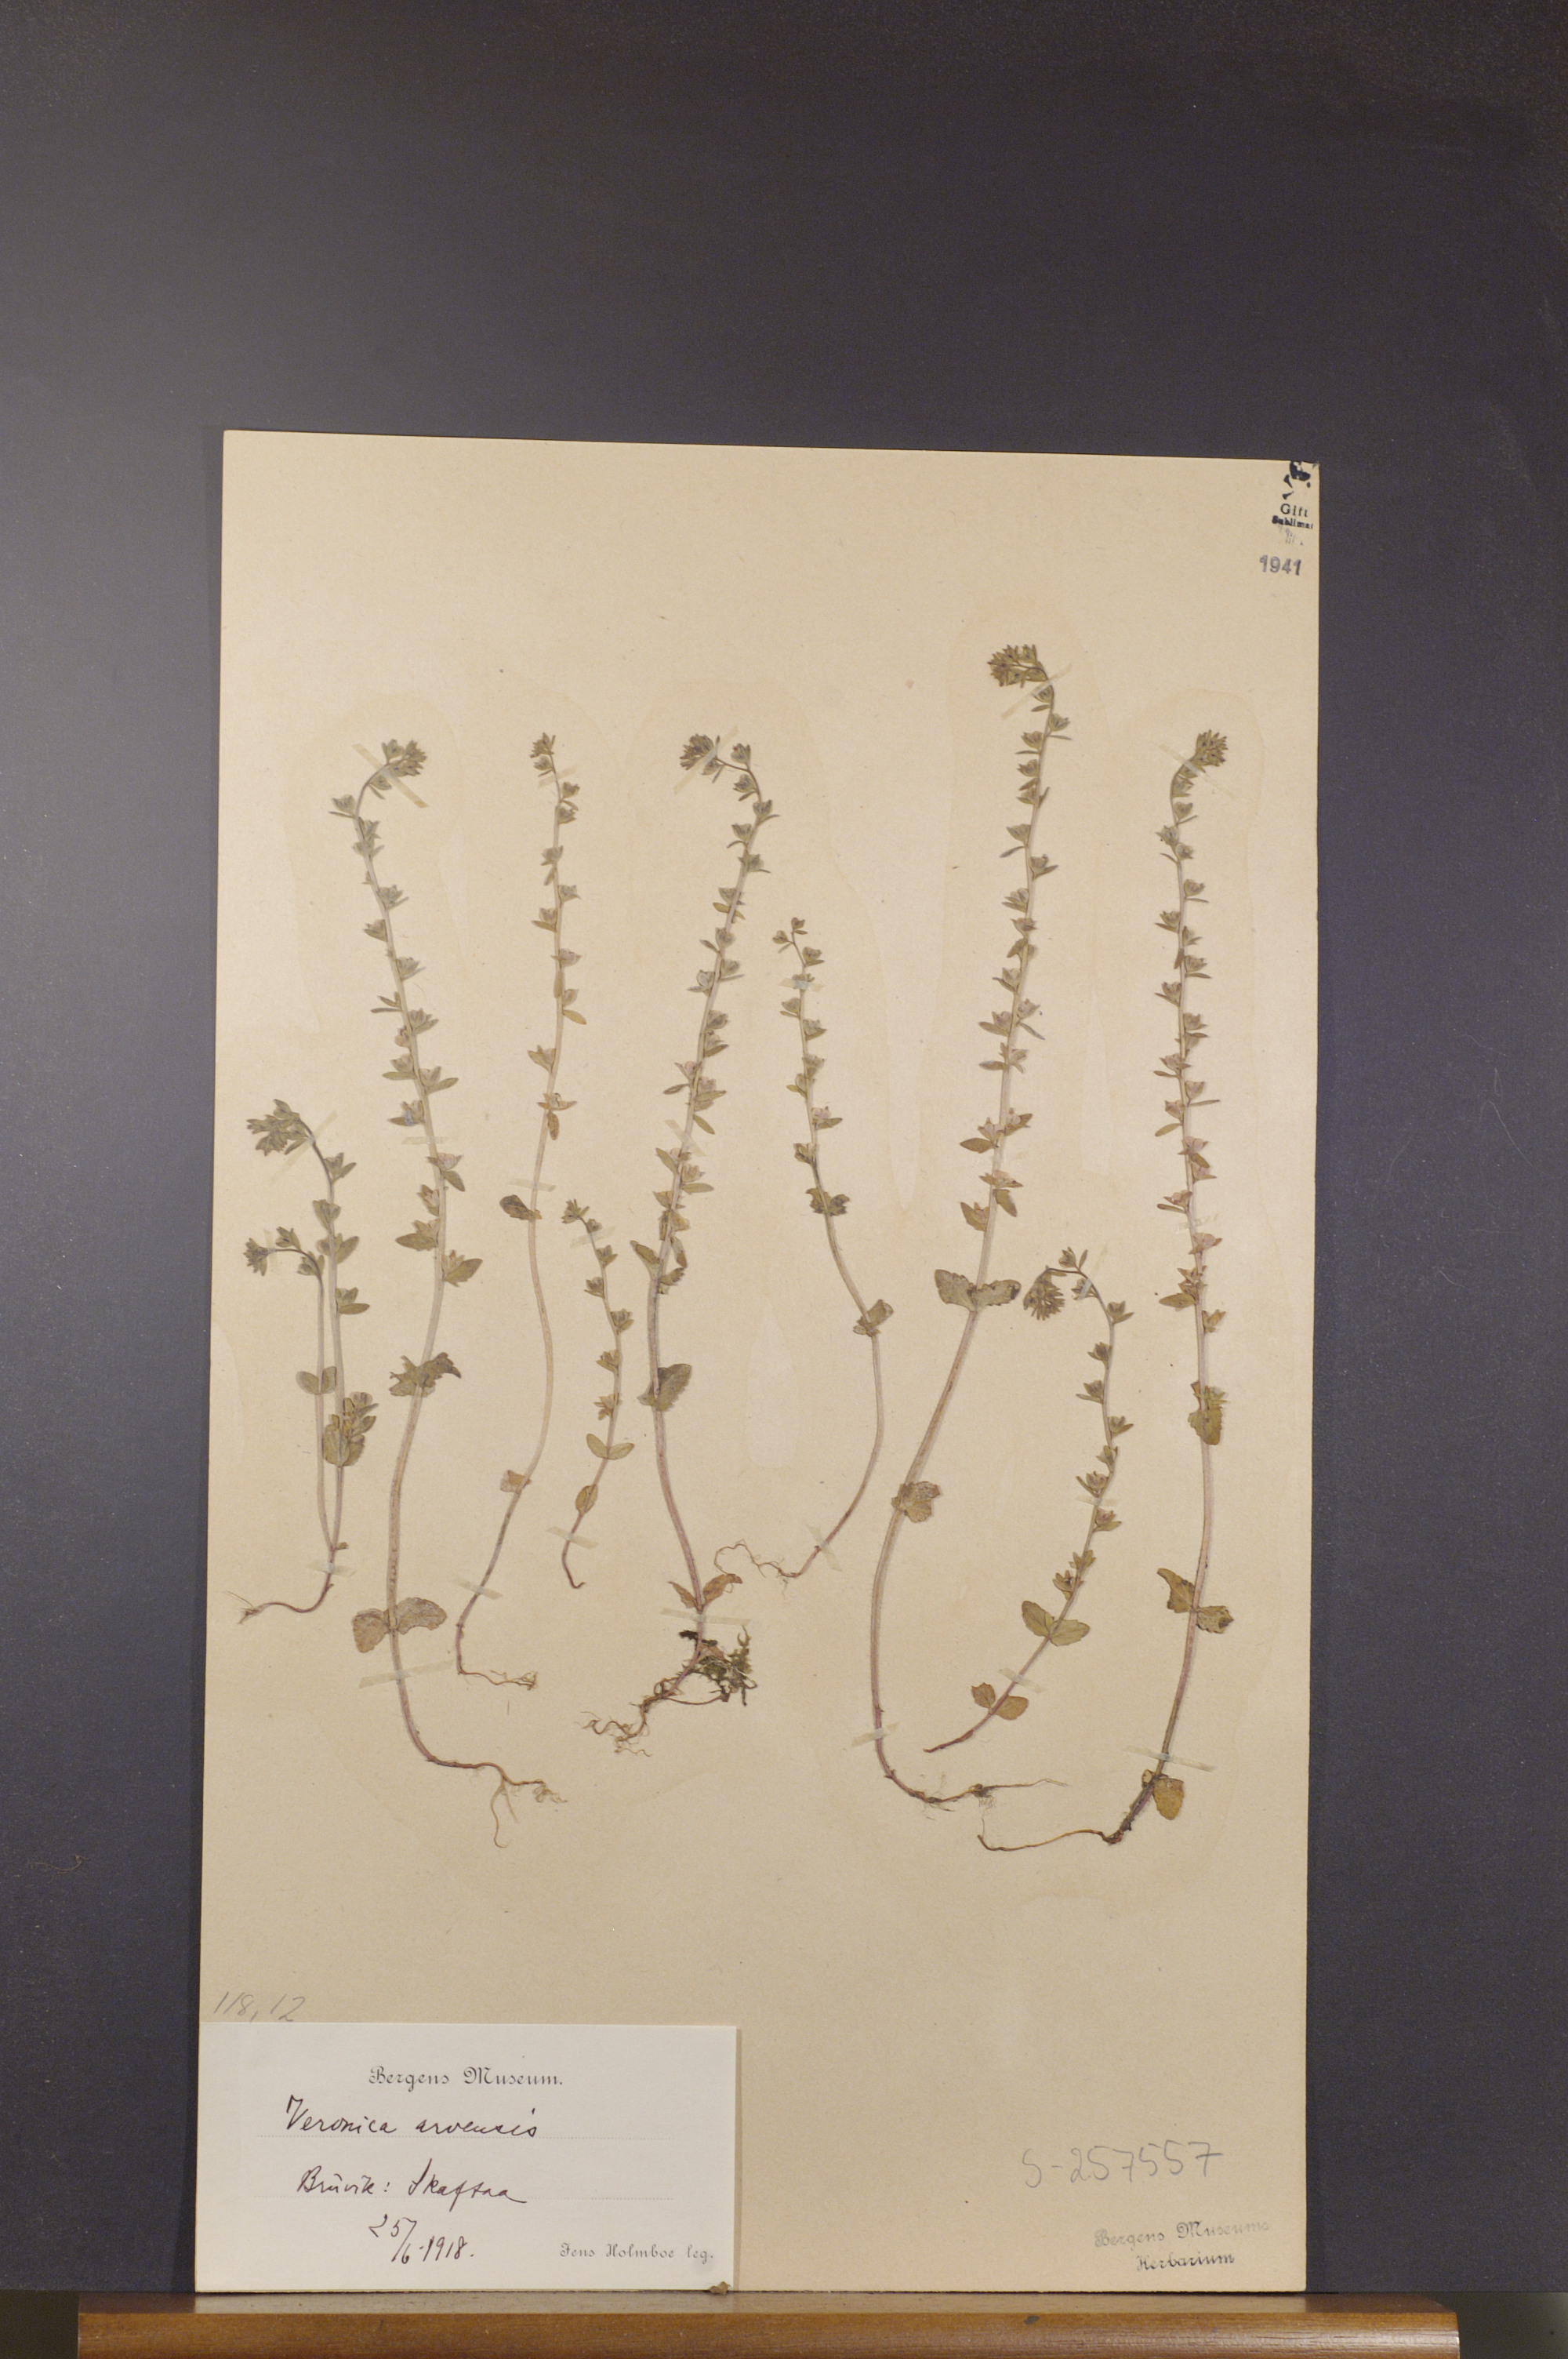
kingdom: Plantae
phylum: Tracheophyta
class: Magnoliopsida
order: Lamiales
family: Plantaginaceae
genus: Veronica
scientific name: Veronica arvensis
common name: Corn speedwell
